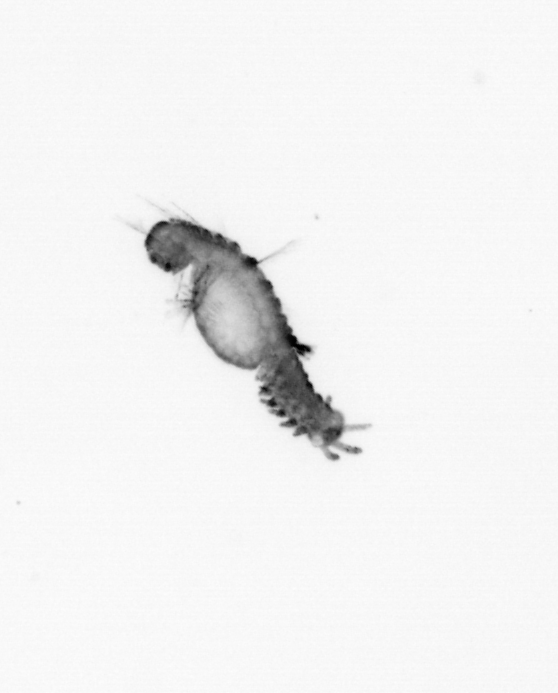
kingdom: Animalia
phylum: Annelida
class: Polychaeta
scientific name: Polychaeta
